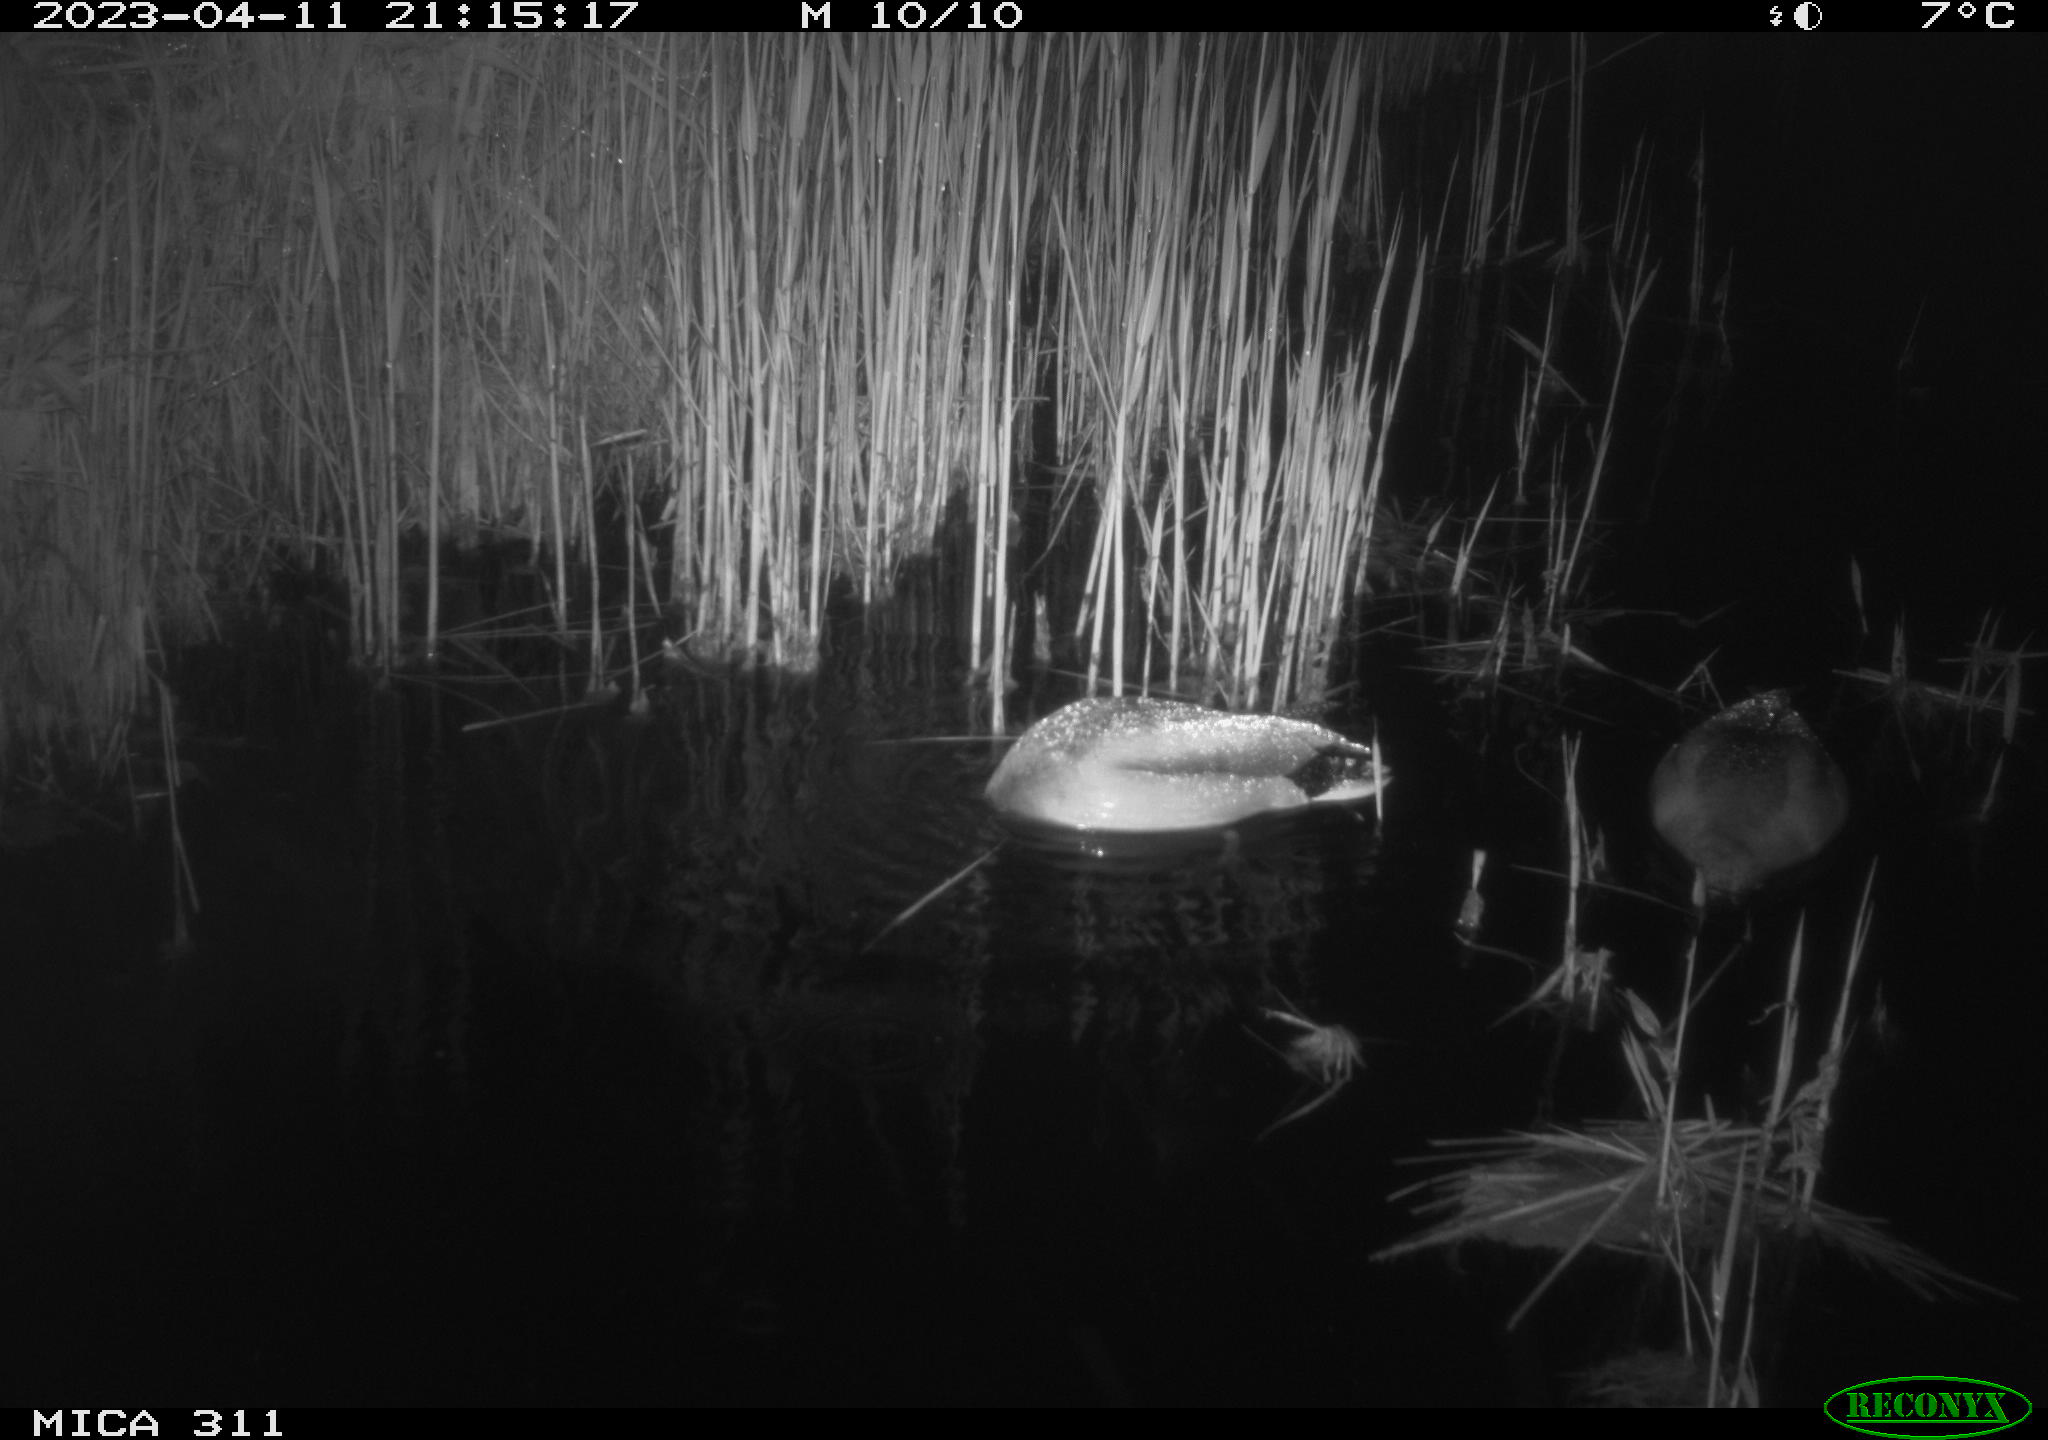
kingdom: Animalia
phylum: Chordata
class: Aves
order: Anseriformes
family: Anatidae
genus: Anas
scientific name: Anas
